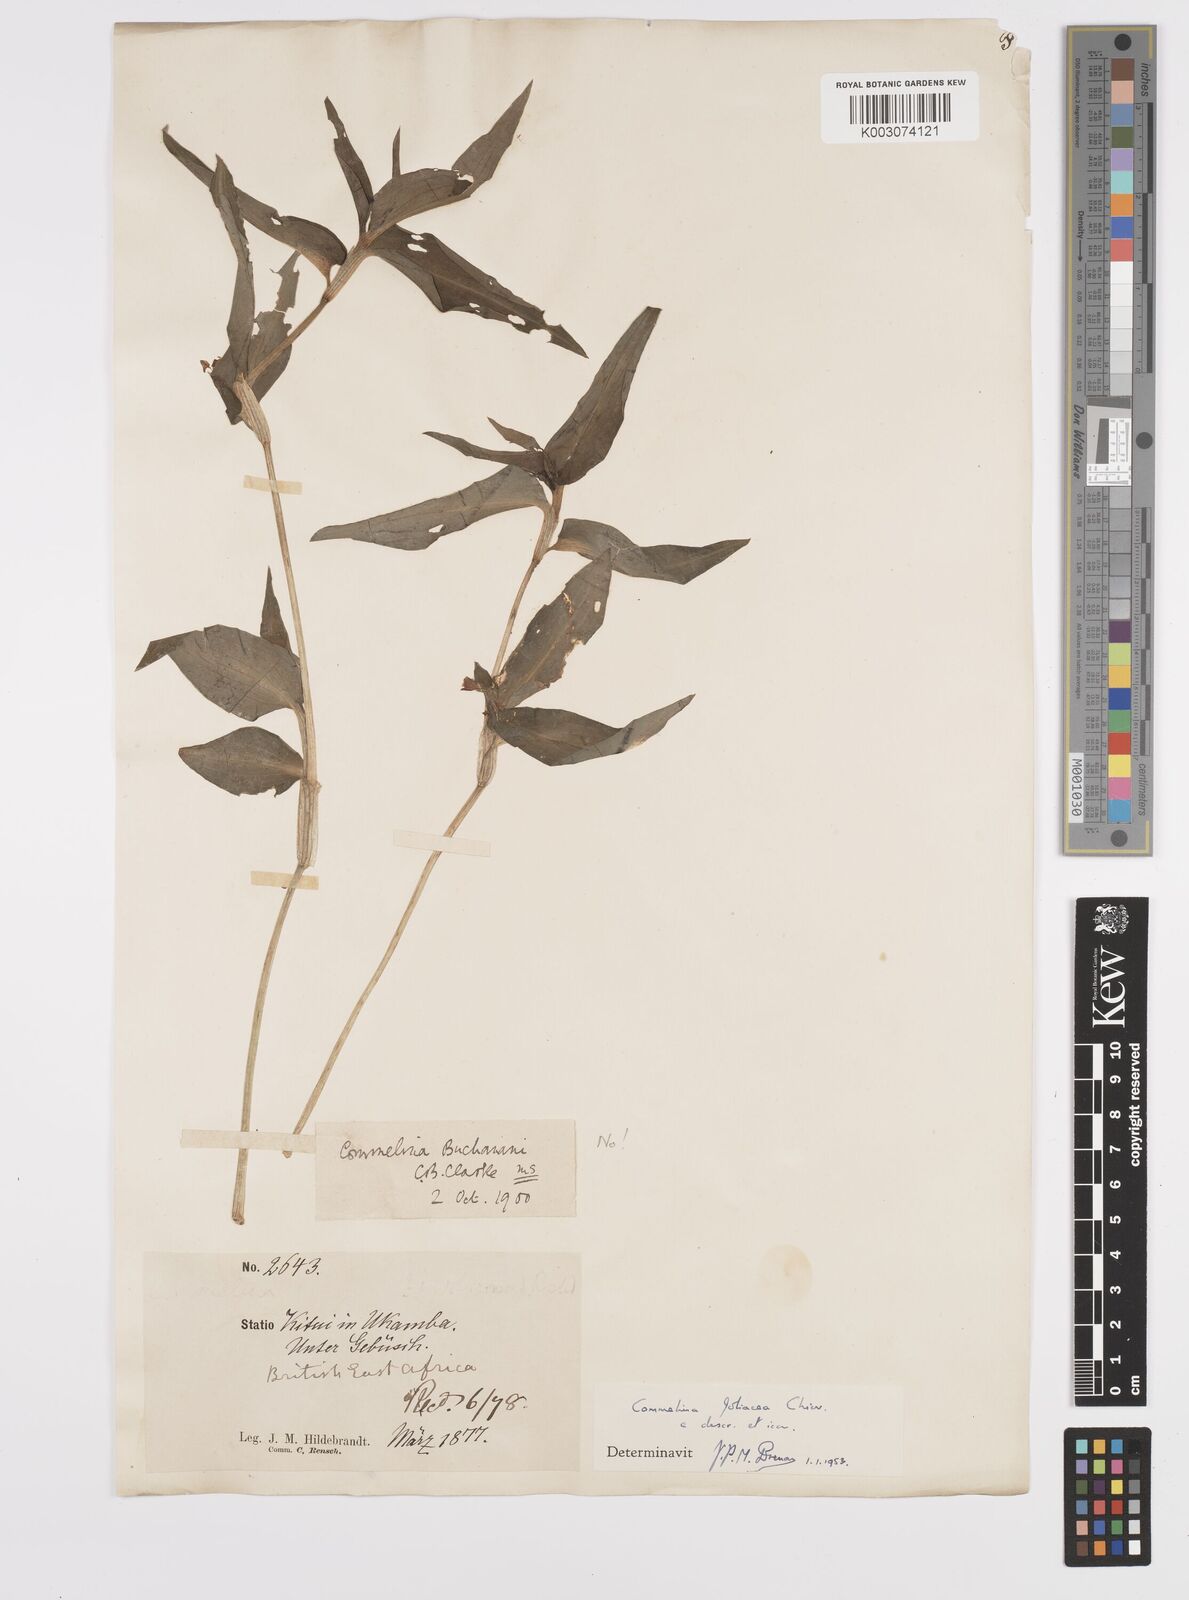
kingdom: Plantae
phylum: Tracheophyta
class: Liliopsida
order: Commelinales
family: Commelinaceae
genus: Commelina
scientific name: Commelina foliacea
